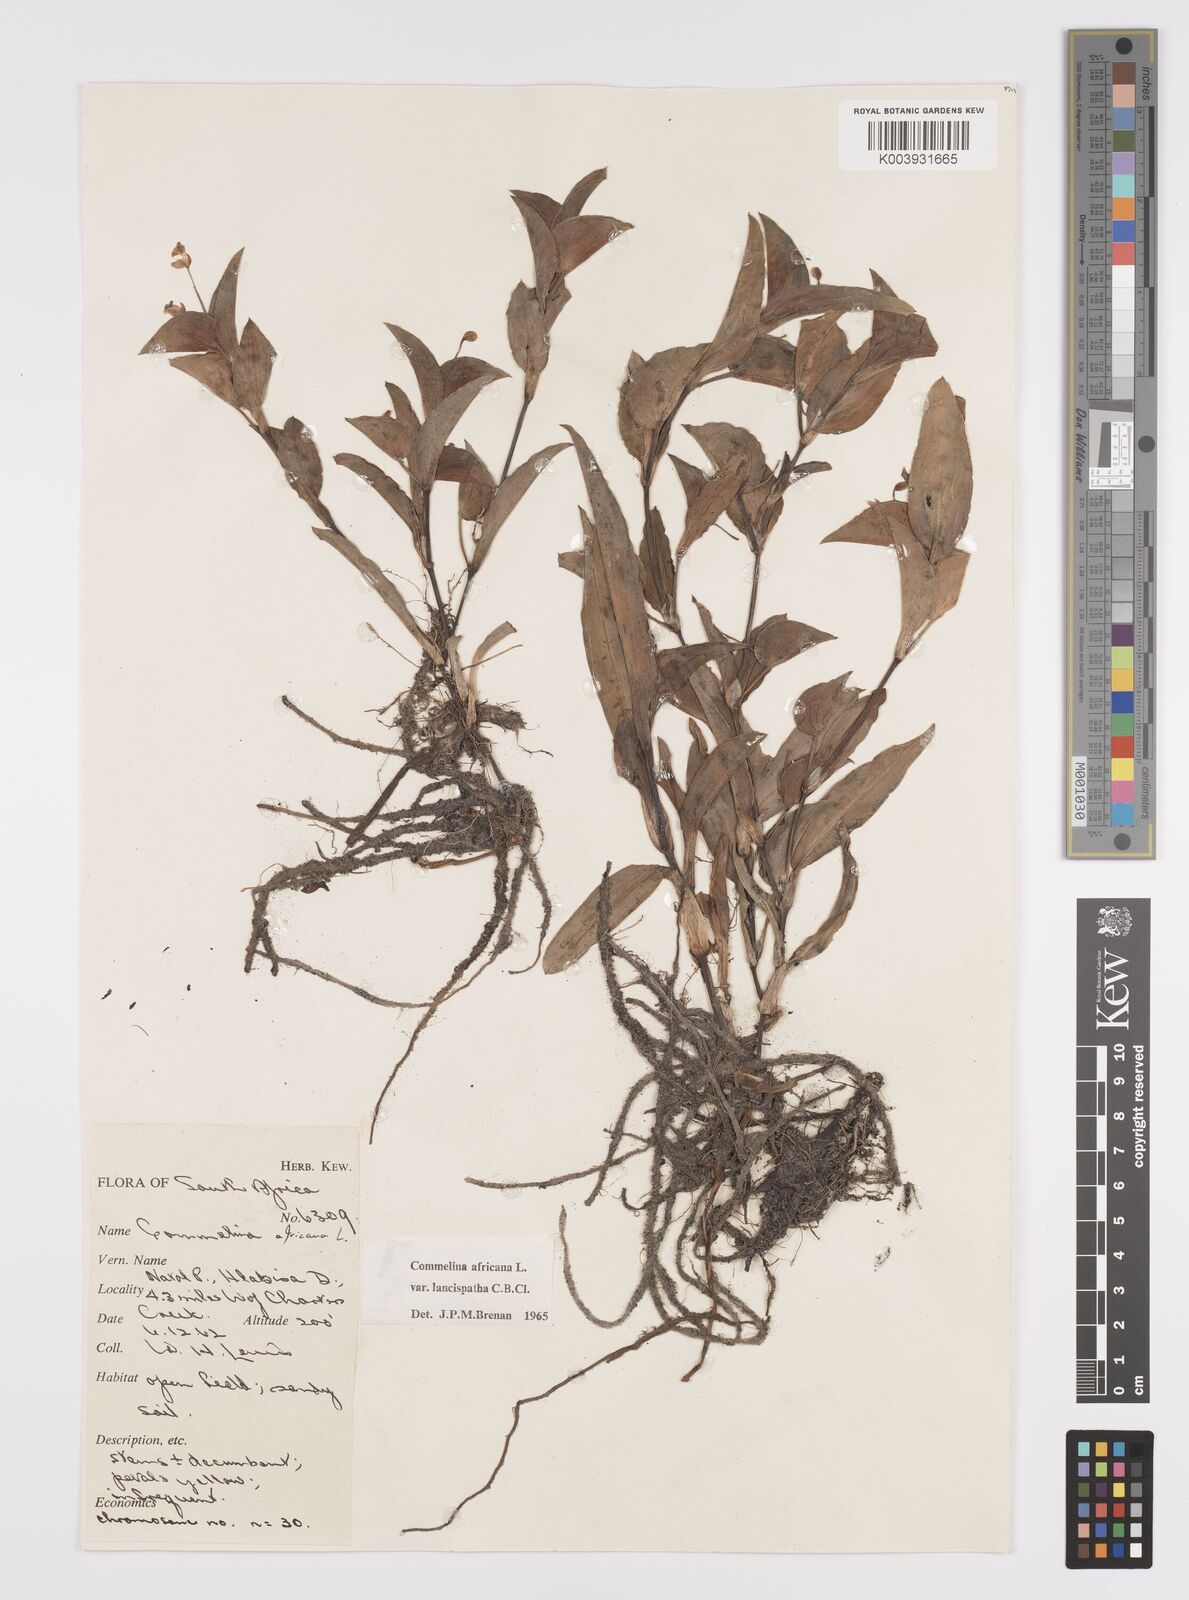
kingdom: Plantae
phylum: Tracheophyta
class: Liliopsida
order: Commelinales
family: Commelinaceae
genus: Commelina
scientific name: Commelina africana
